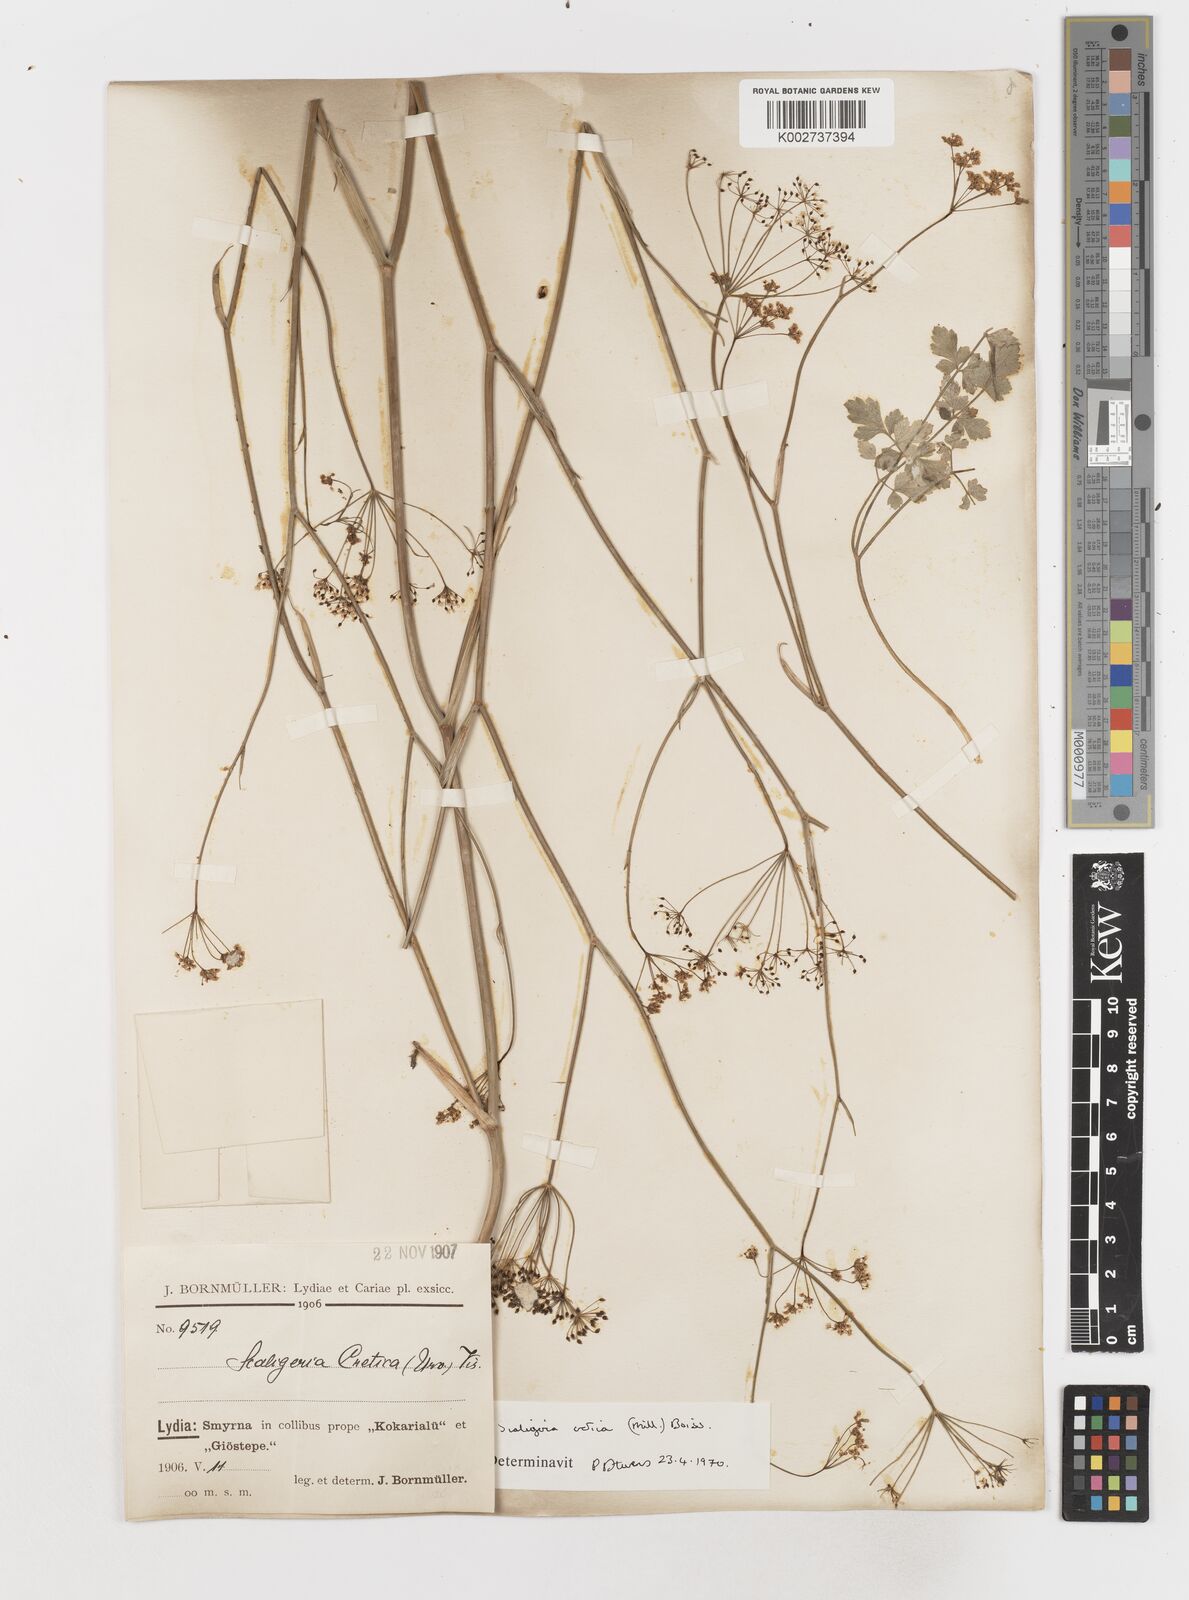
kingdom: Plantae
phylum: Tracheophyta
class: Magnoliopsida
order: Apiales
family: Apiaceae
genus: Scaligeria
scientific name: Scaligeria
